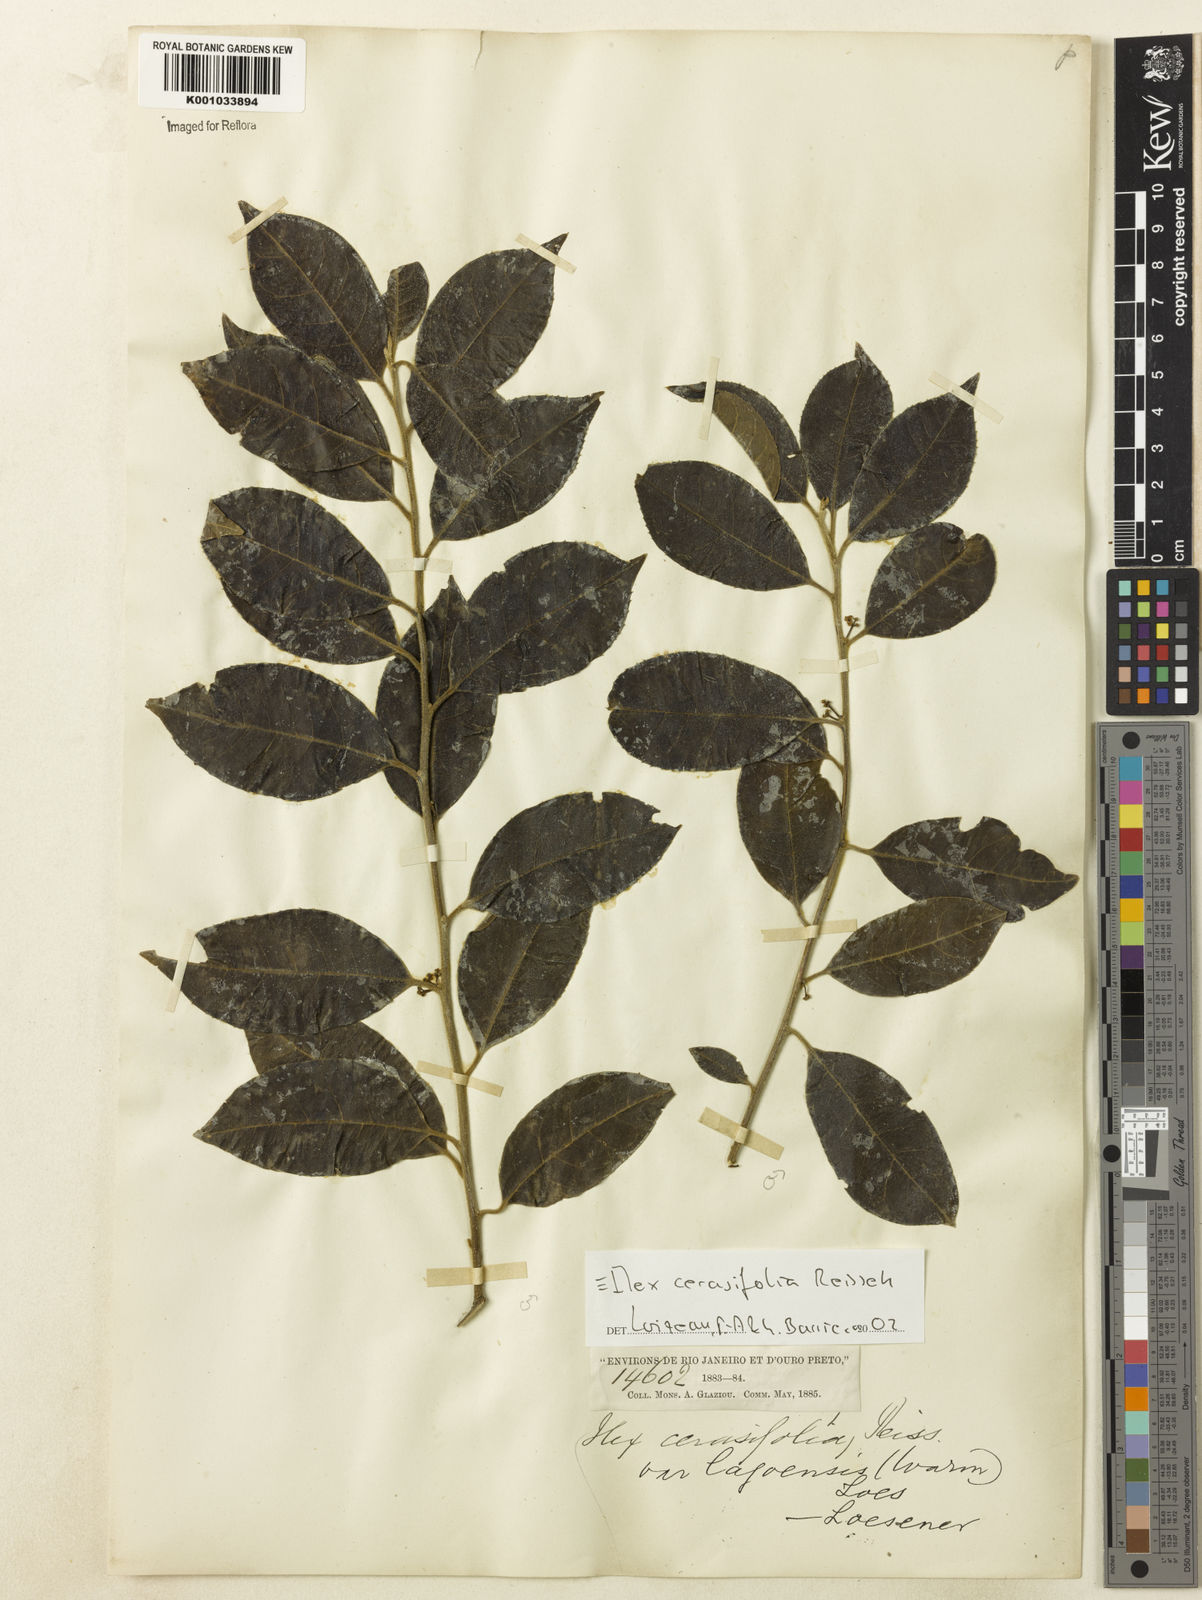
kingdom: Plantae
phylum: Tracheophyta
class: Magnoliopsida
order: Aquifoliales
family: Aquifoliaceae
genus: Ilex
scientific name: Ilex cerasifolia
